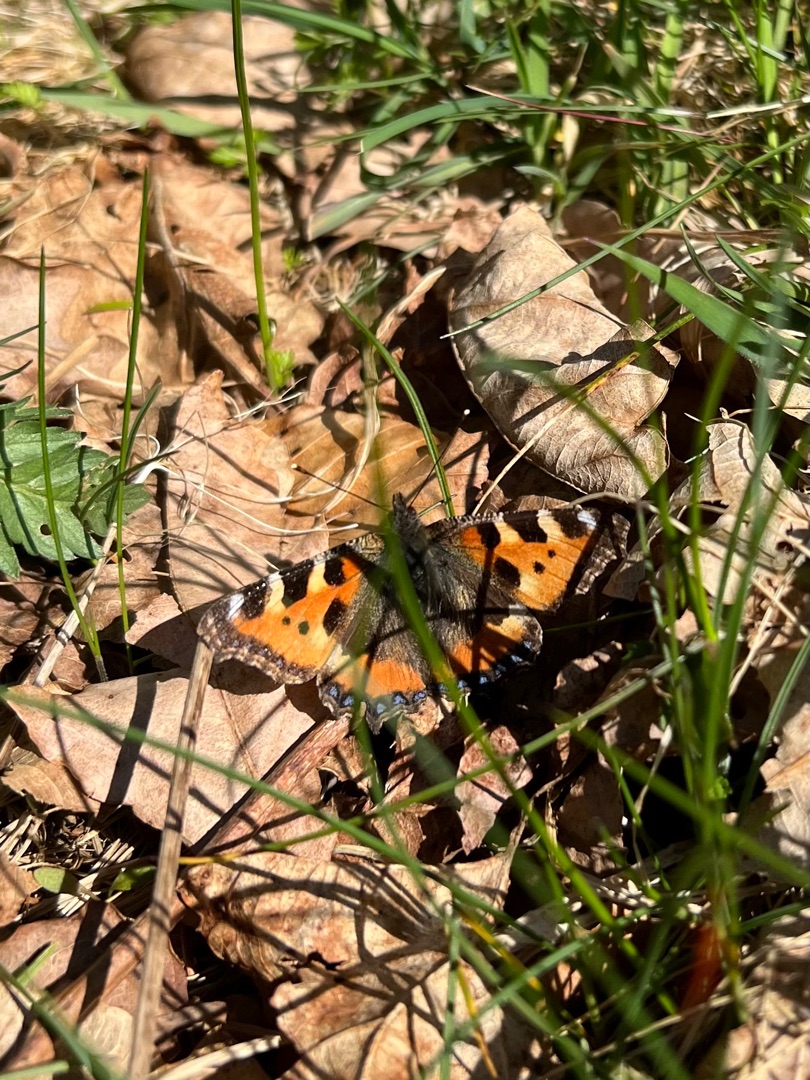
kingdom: Animalia
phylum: Arthropoda
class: Insecta
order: Lepidoptera
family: Nymphalidae
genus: Aglais
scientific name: Aglais urticae
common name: Nældens takvinge
